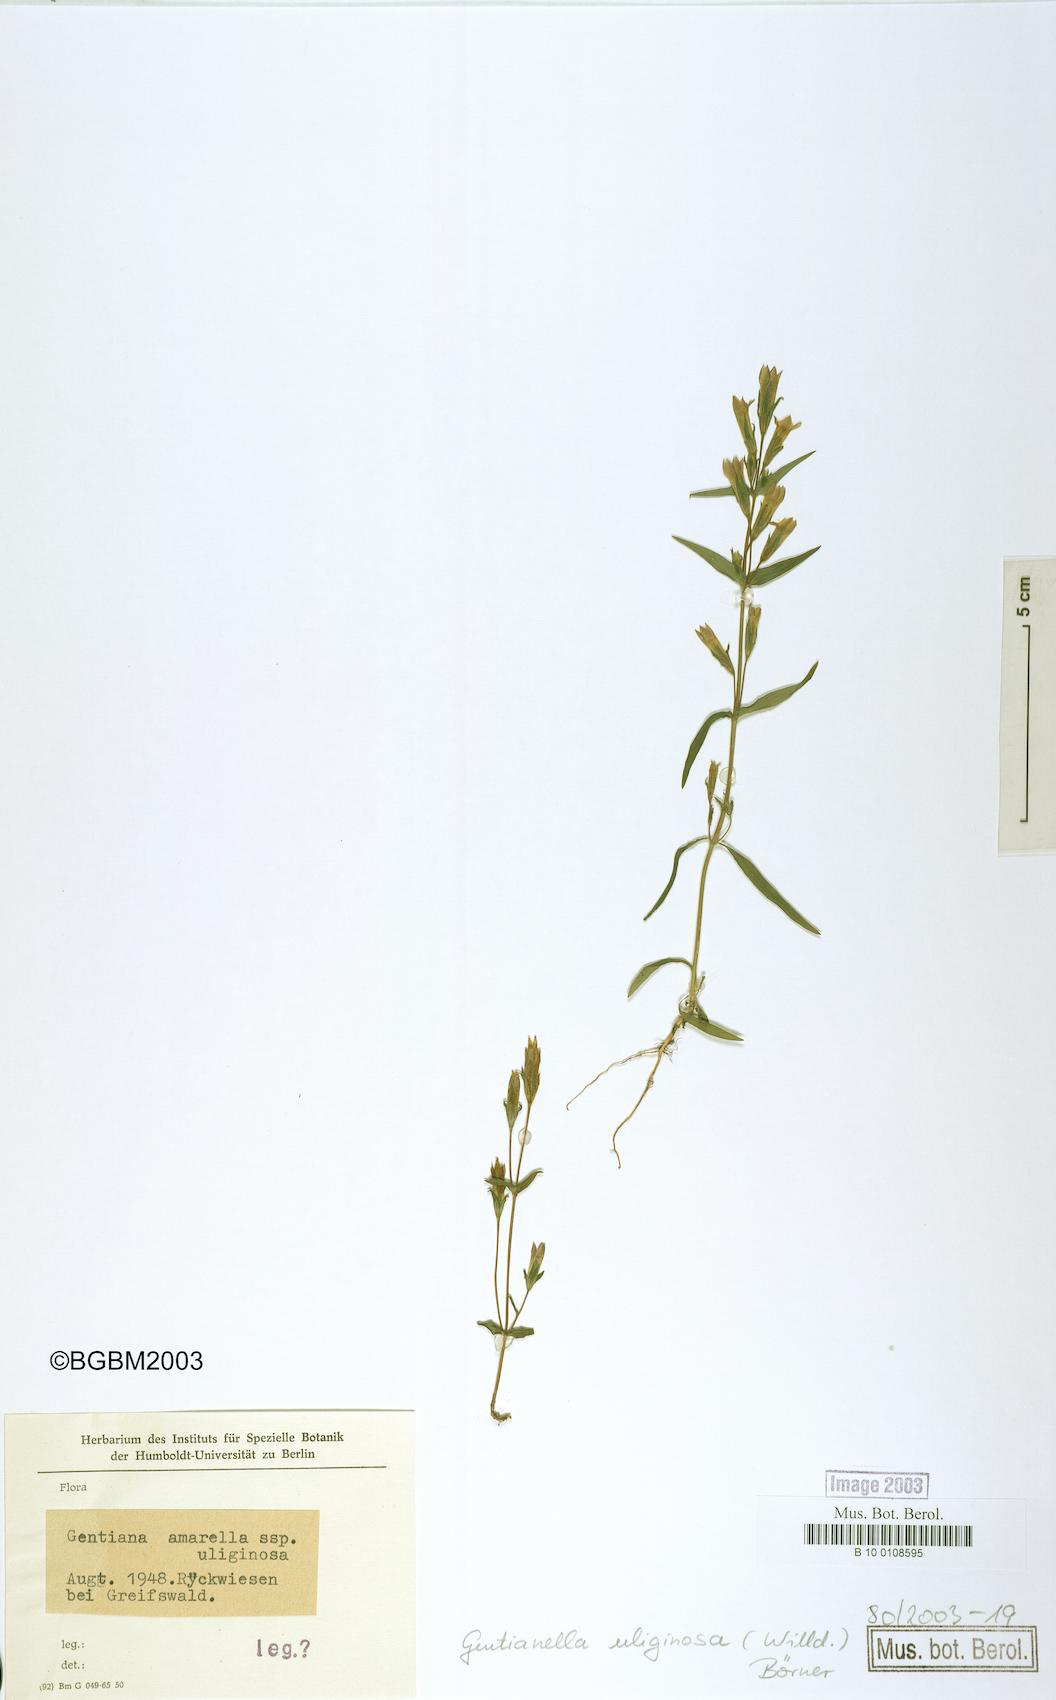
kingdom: Plantae
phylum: Tracheophyta
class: Magnoliopsida
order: Gentianales
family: Gentianaceae
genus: Gentianella
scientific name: Gentianella uliginosa
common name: Dune gentian
